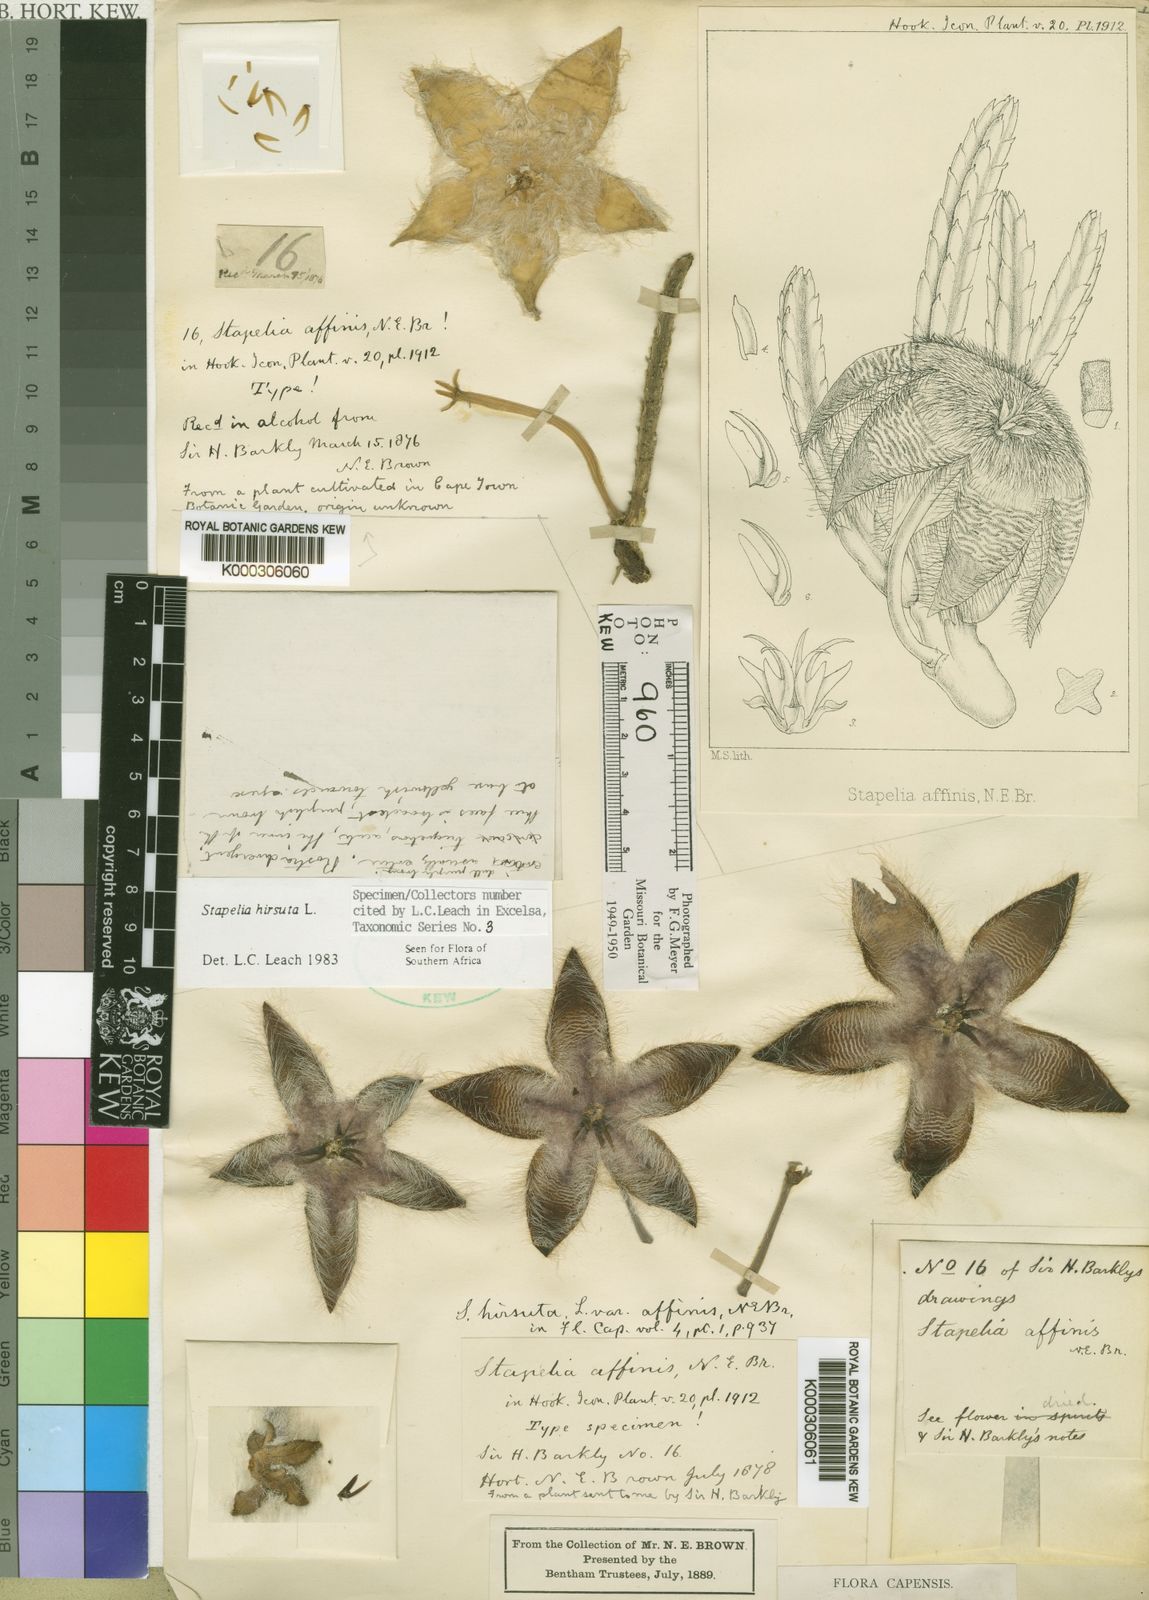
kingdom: Plantae
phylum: Tracheophyta
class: Magnoliopsida
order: Gentianales
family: Apocynaceae
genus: Ceropegia
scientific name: Ceropegia pulvinata
